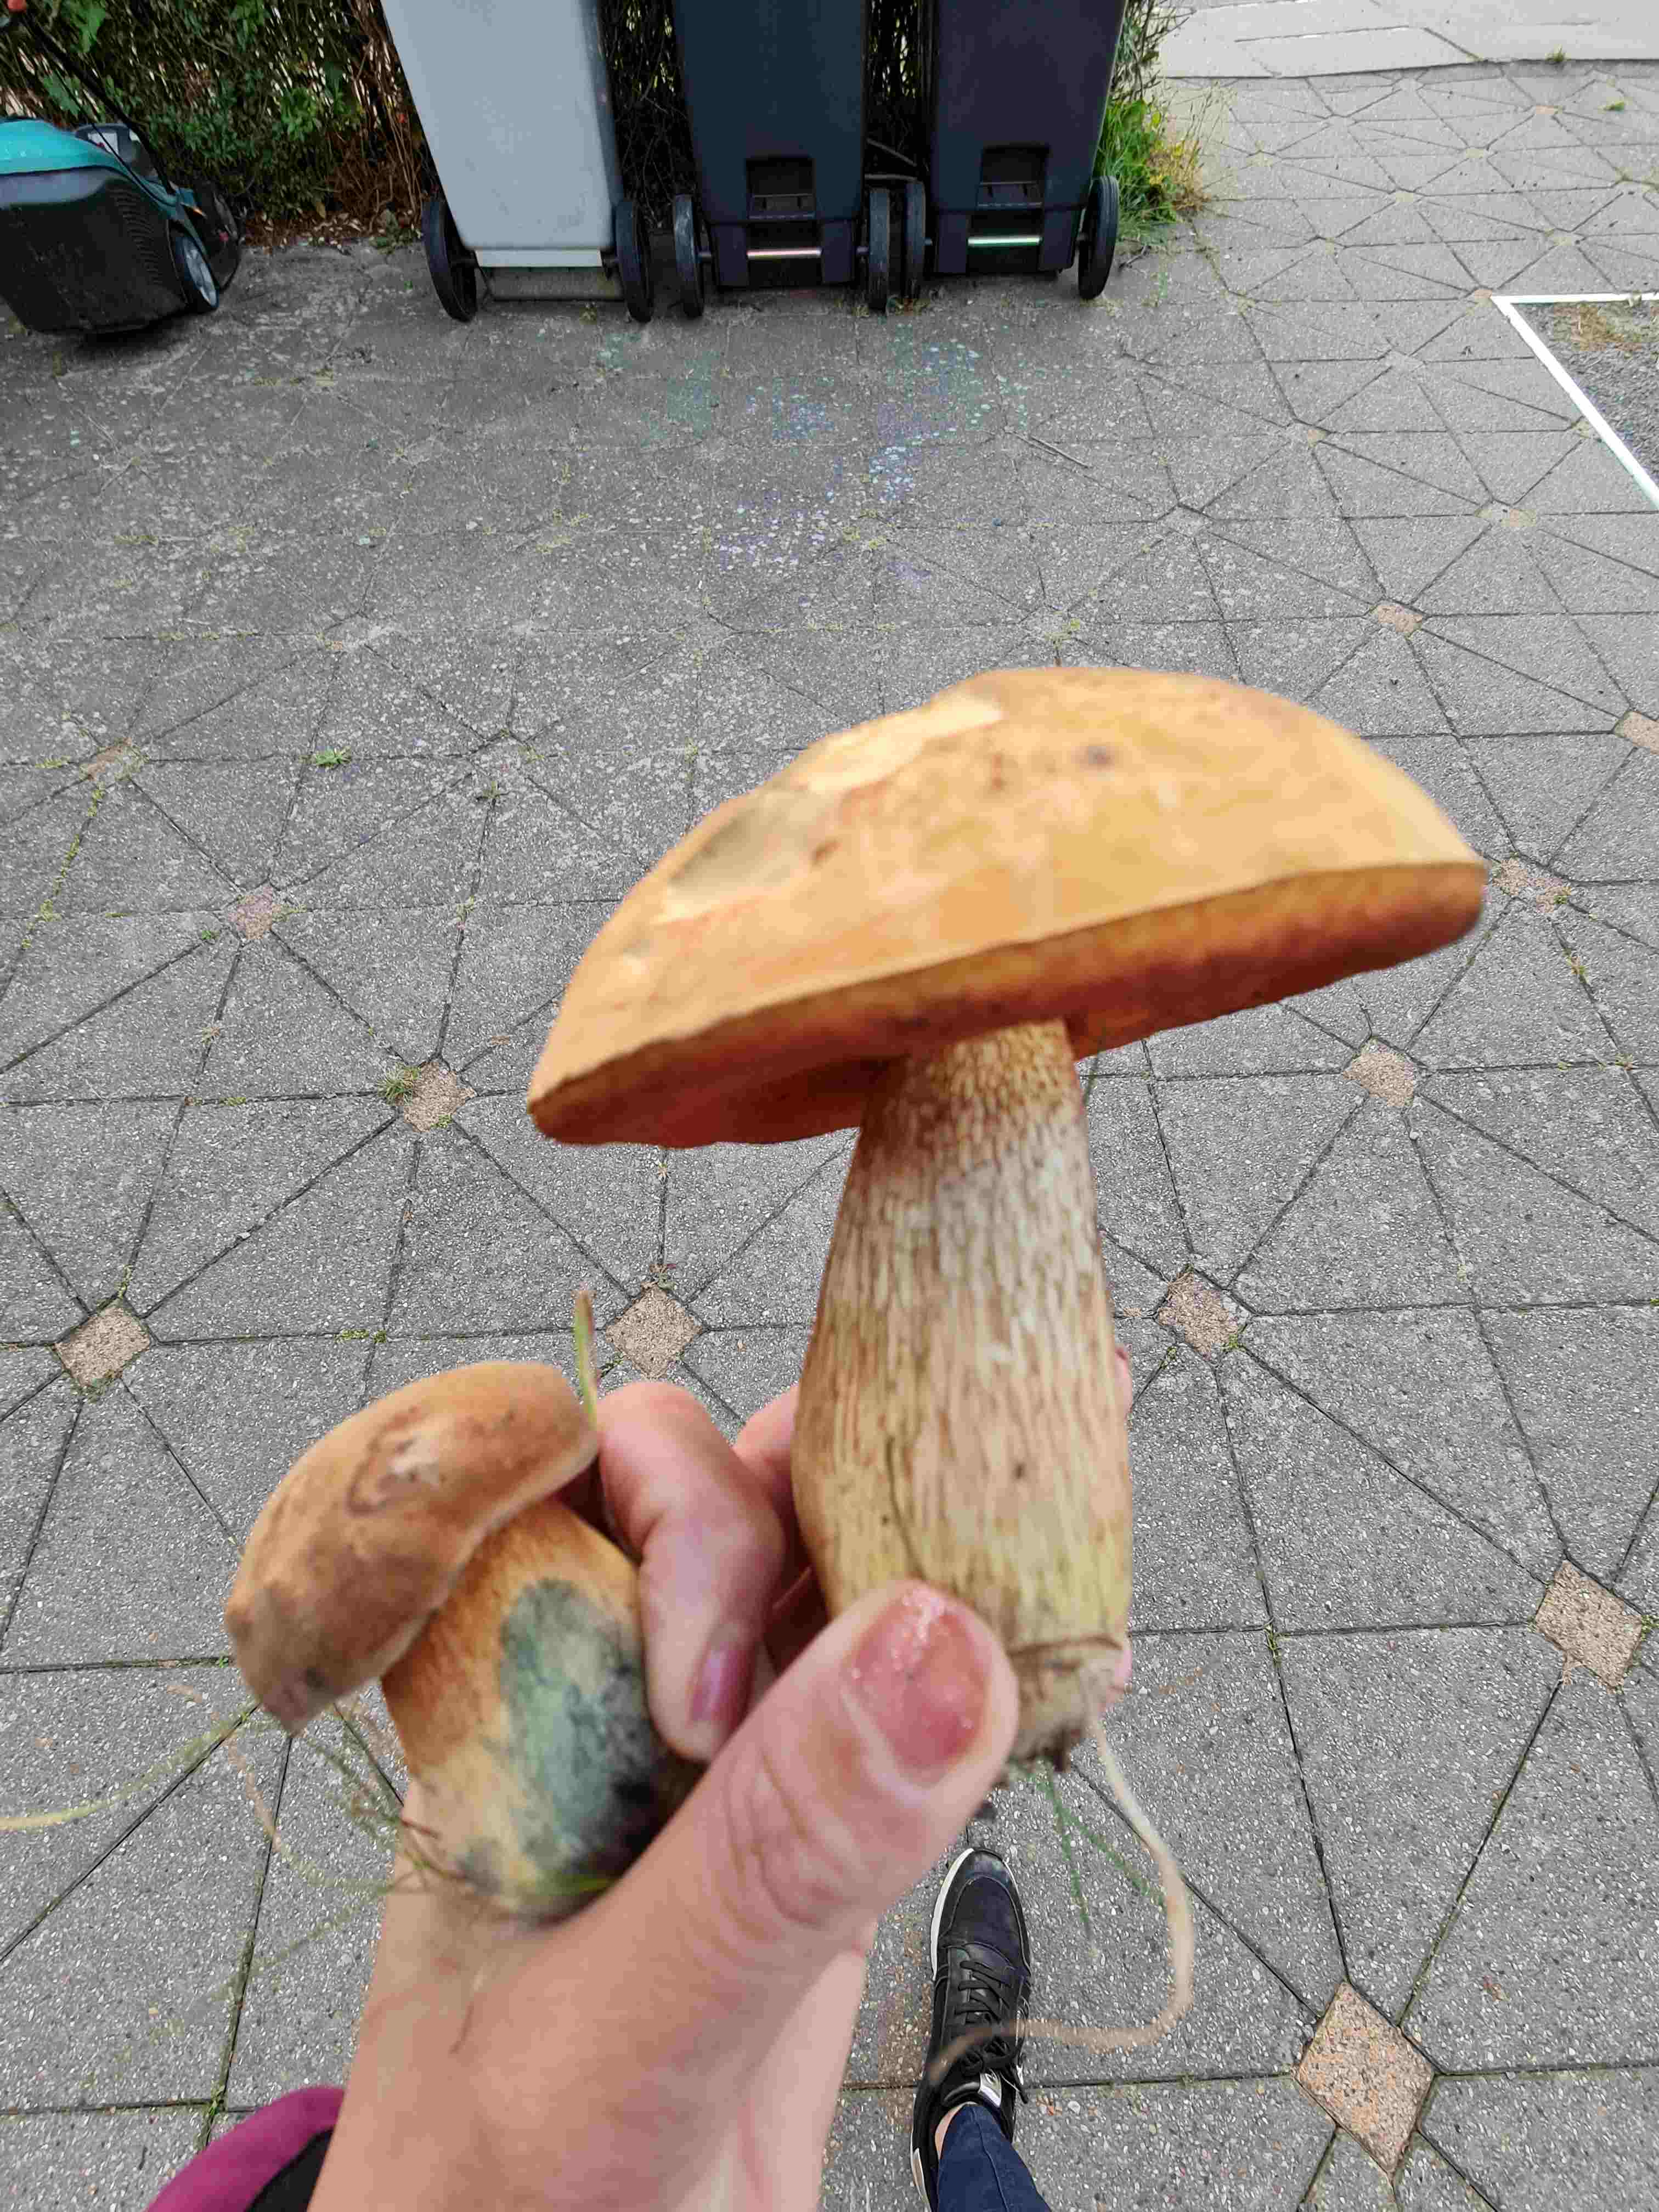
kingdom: Fungi
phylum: Basidiomycota
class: Agaricomycetes
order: Boletales
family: Boletaceae
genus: Suillellus
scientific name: Suillellus luridus
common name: netstokket indigorørhat
